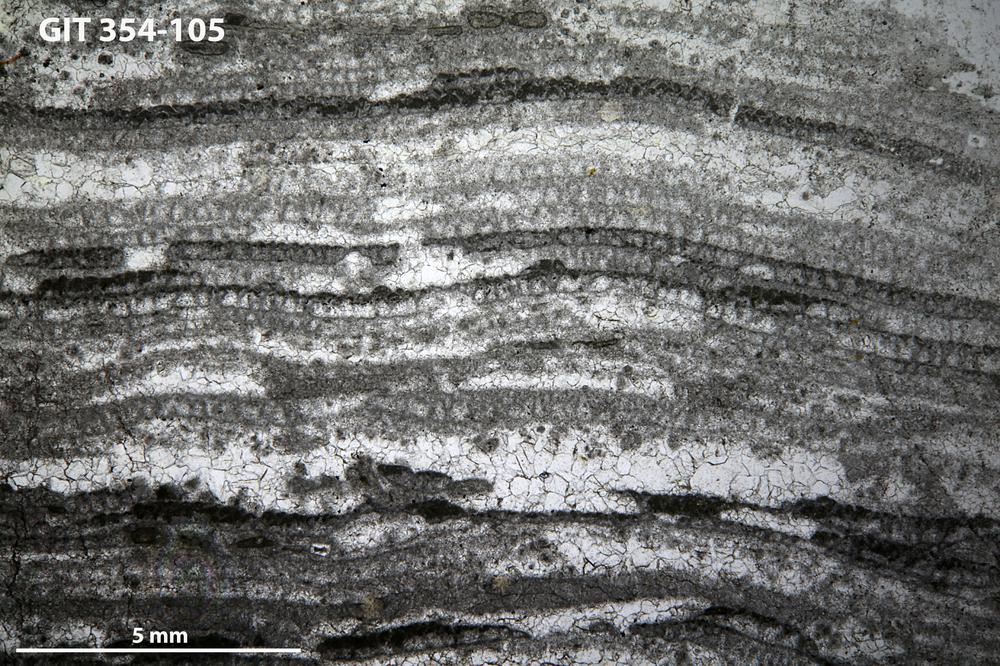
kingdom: Animalia
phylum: Porifera
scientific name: Porifera
